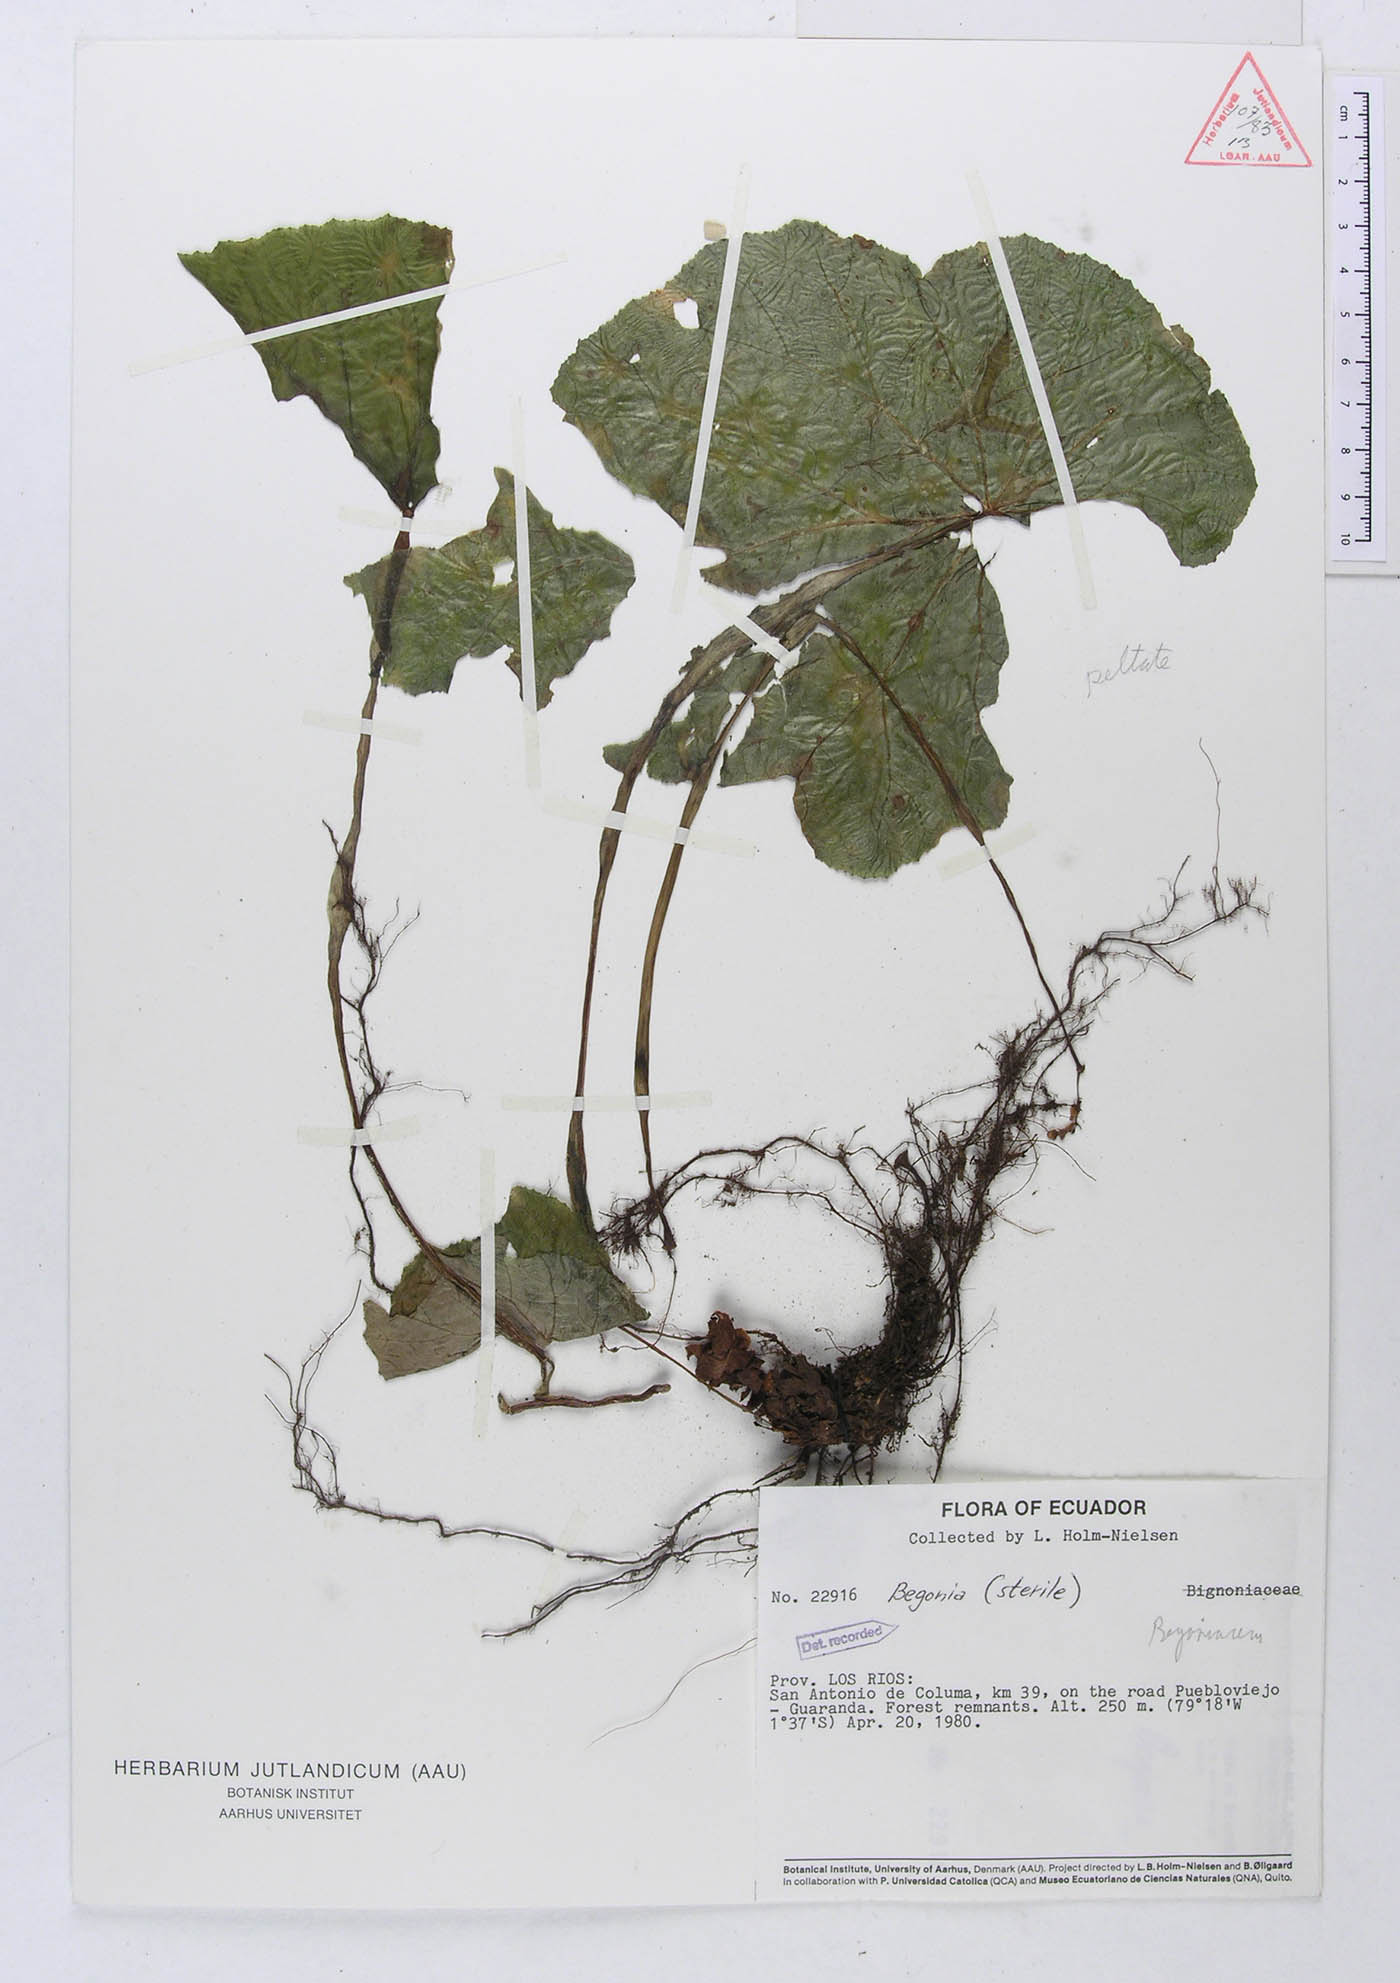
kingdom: Plantae
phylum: Tracheophyta
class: Magnoliopsida
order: Cucurbitales
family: Begoniaceae
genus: Begonia
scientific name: Begonia acerifolia
